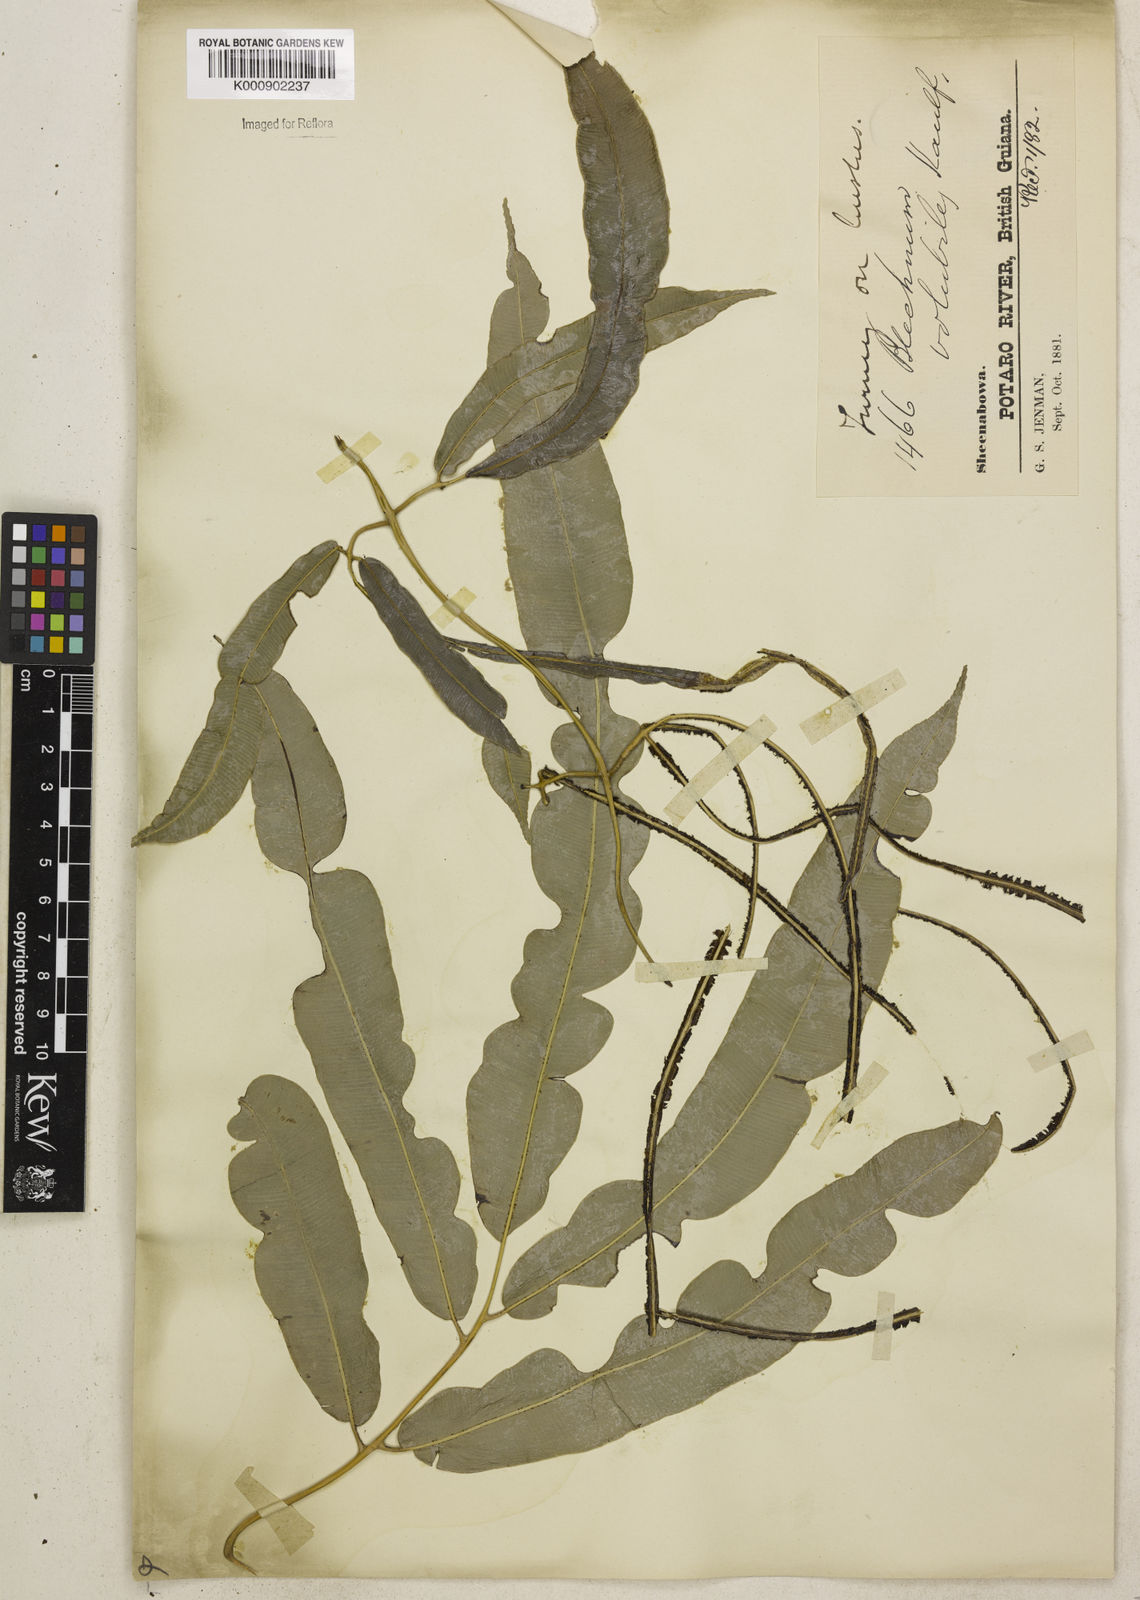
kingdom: Plantae
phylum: Tracheophyta
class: Polypodiopsida
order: Polypodiales
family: Blechnaceae
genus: Salpichlaena
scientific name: Salpichlaena volubilis
